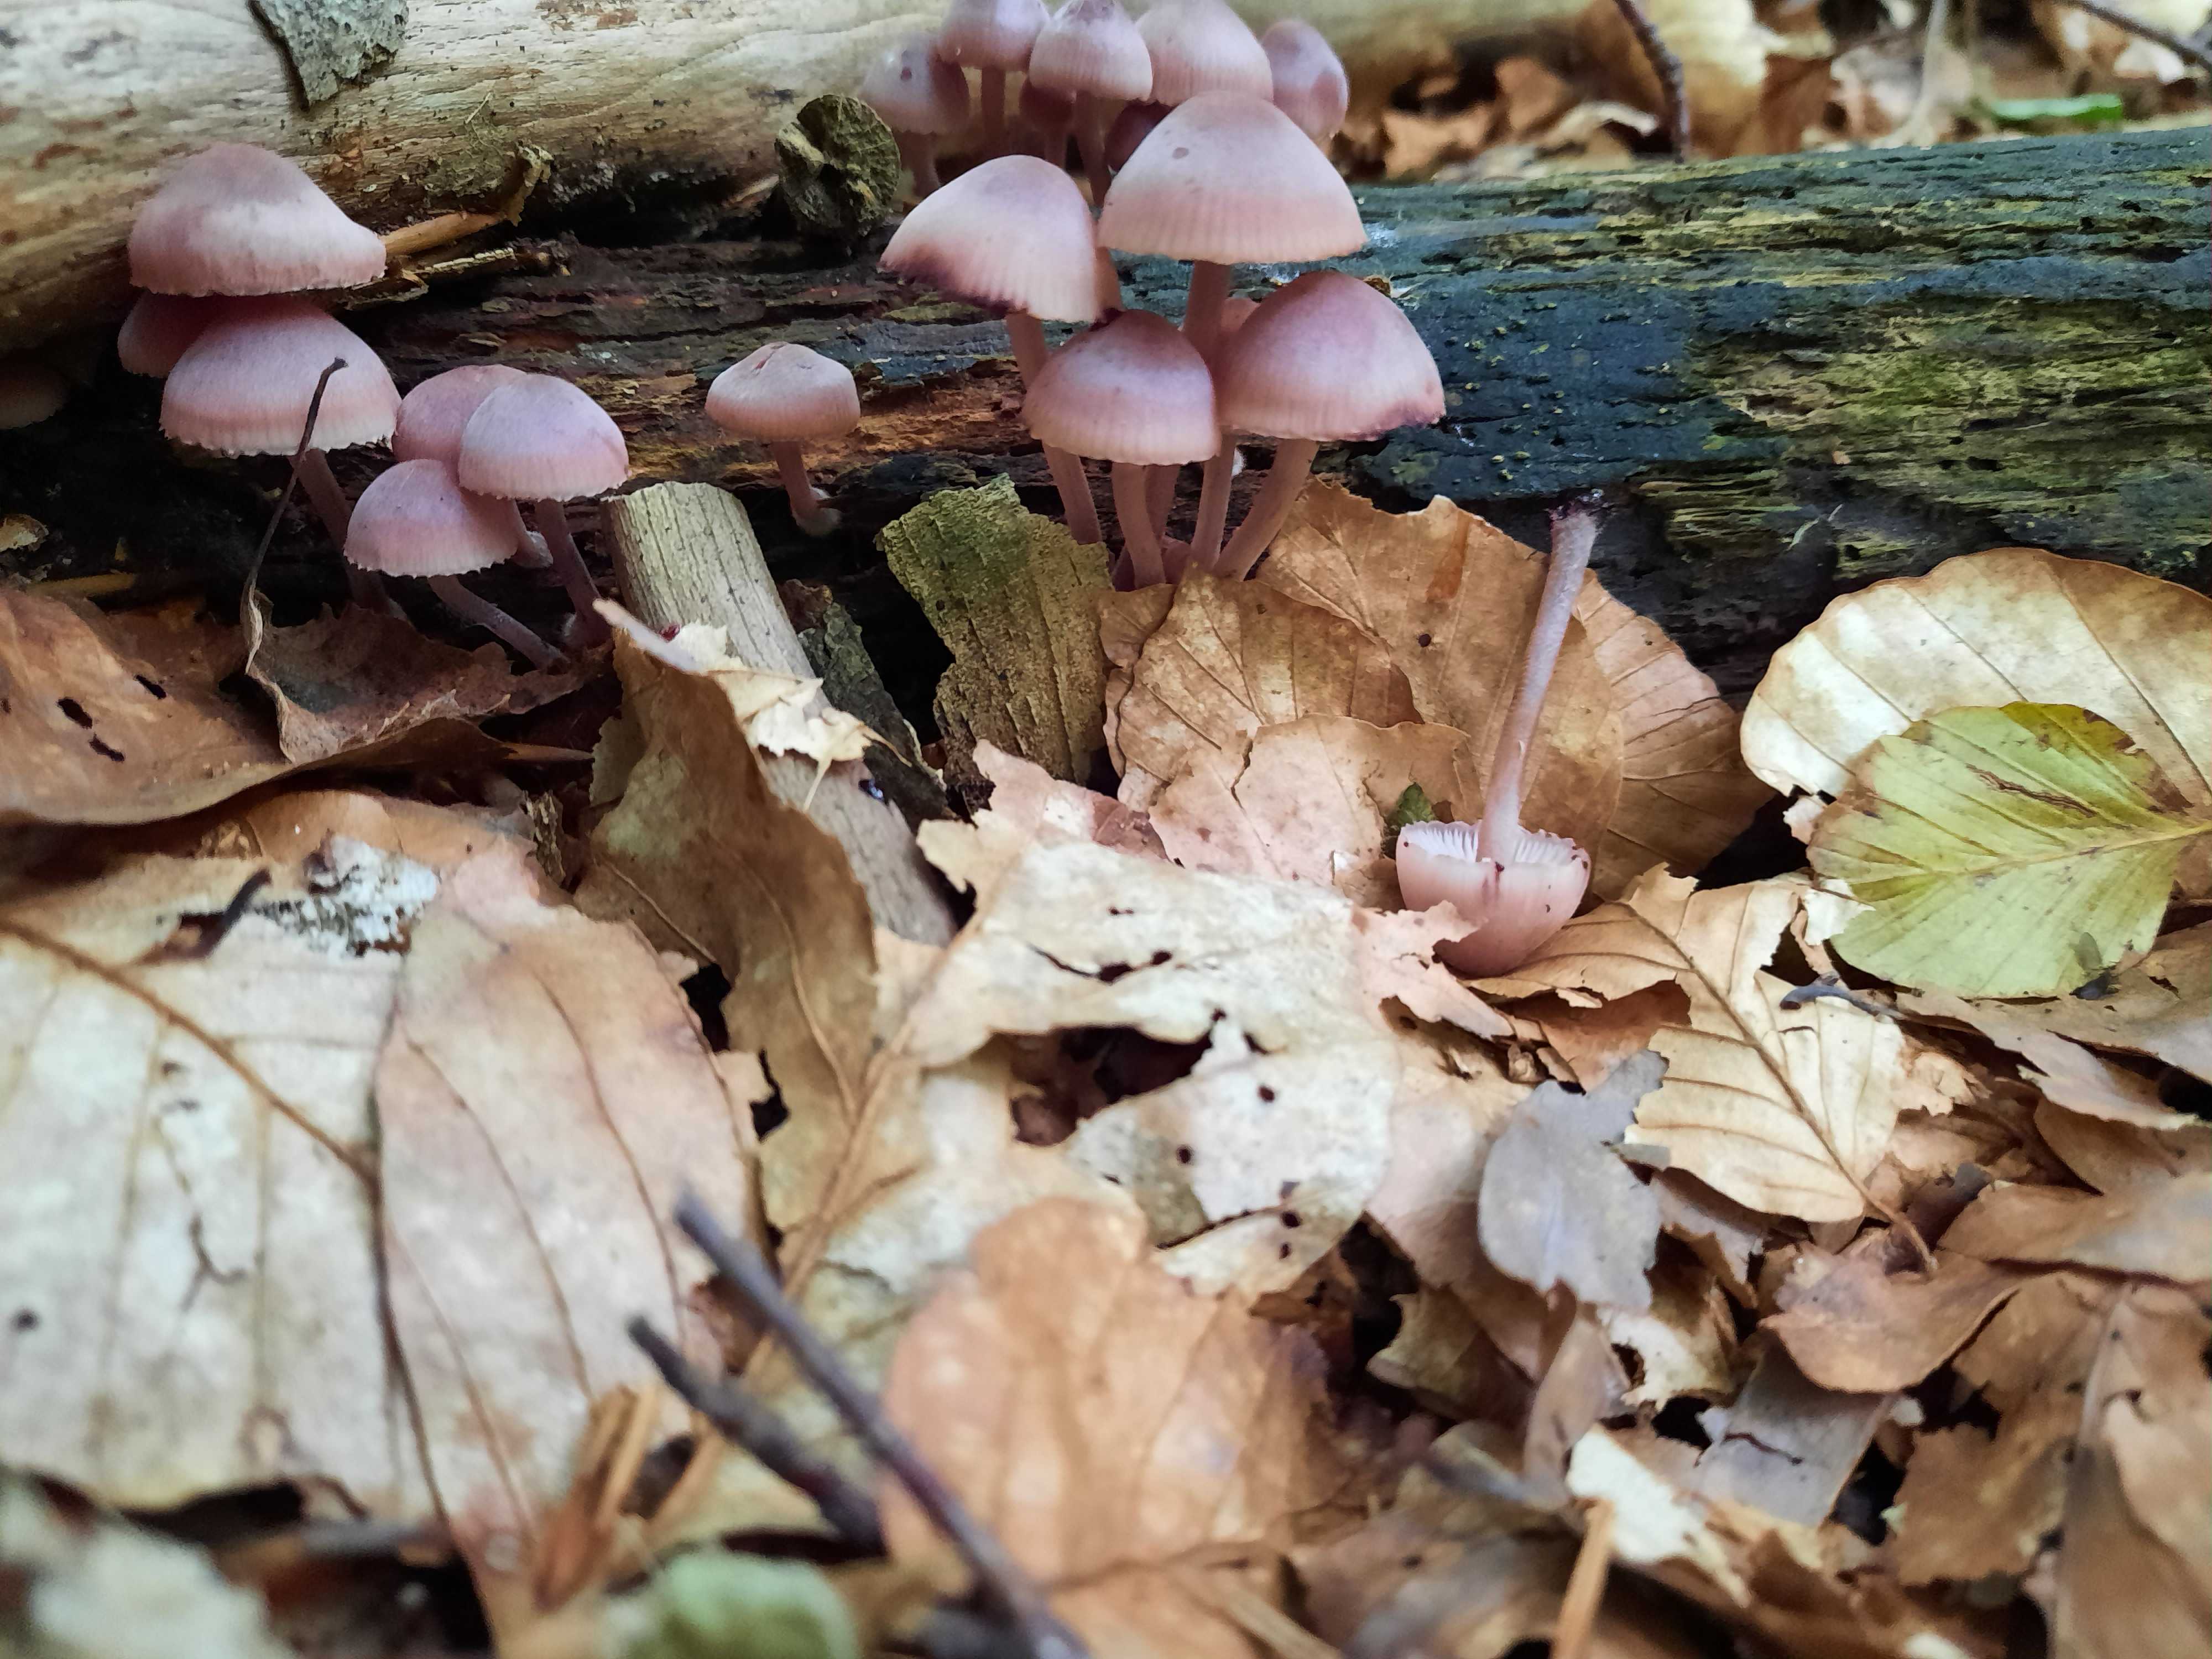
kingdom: Fungi
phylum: Basidiomycota
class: Agaricomycetes
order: Agaricales
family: Mycenaceae
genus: Mycena
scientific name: Mycena haematopus
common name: blødende huesvamp
